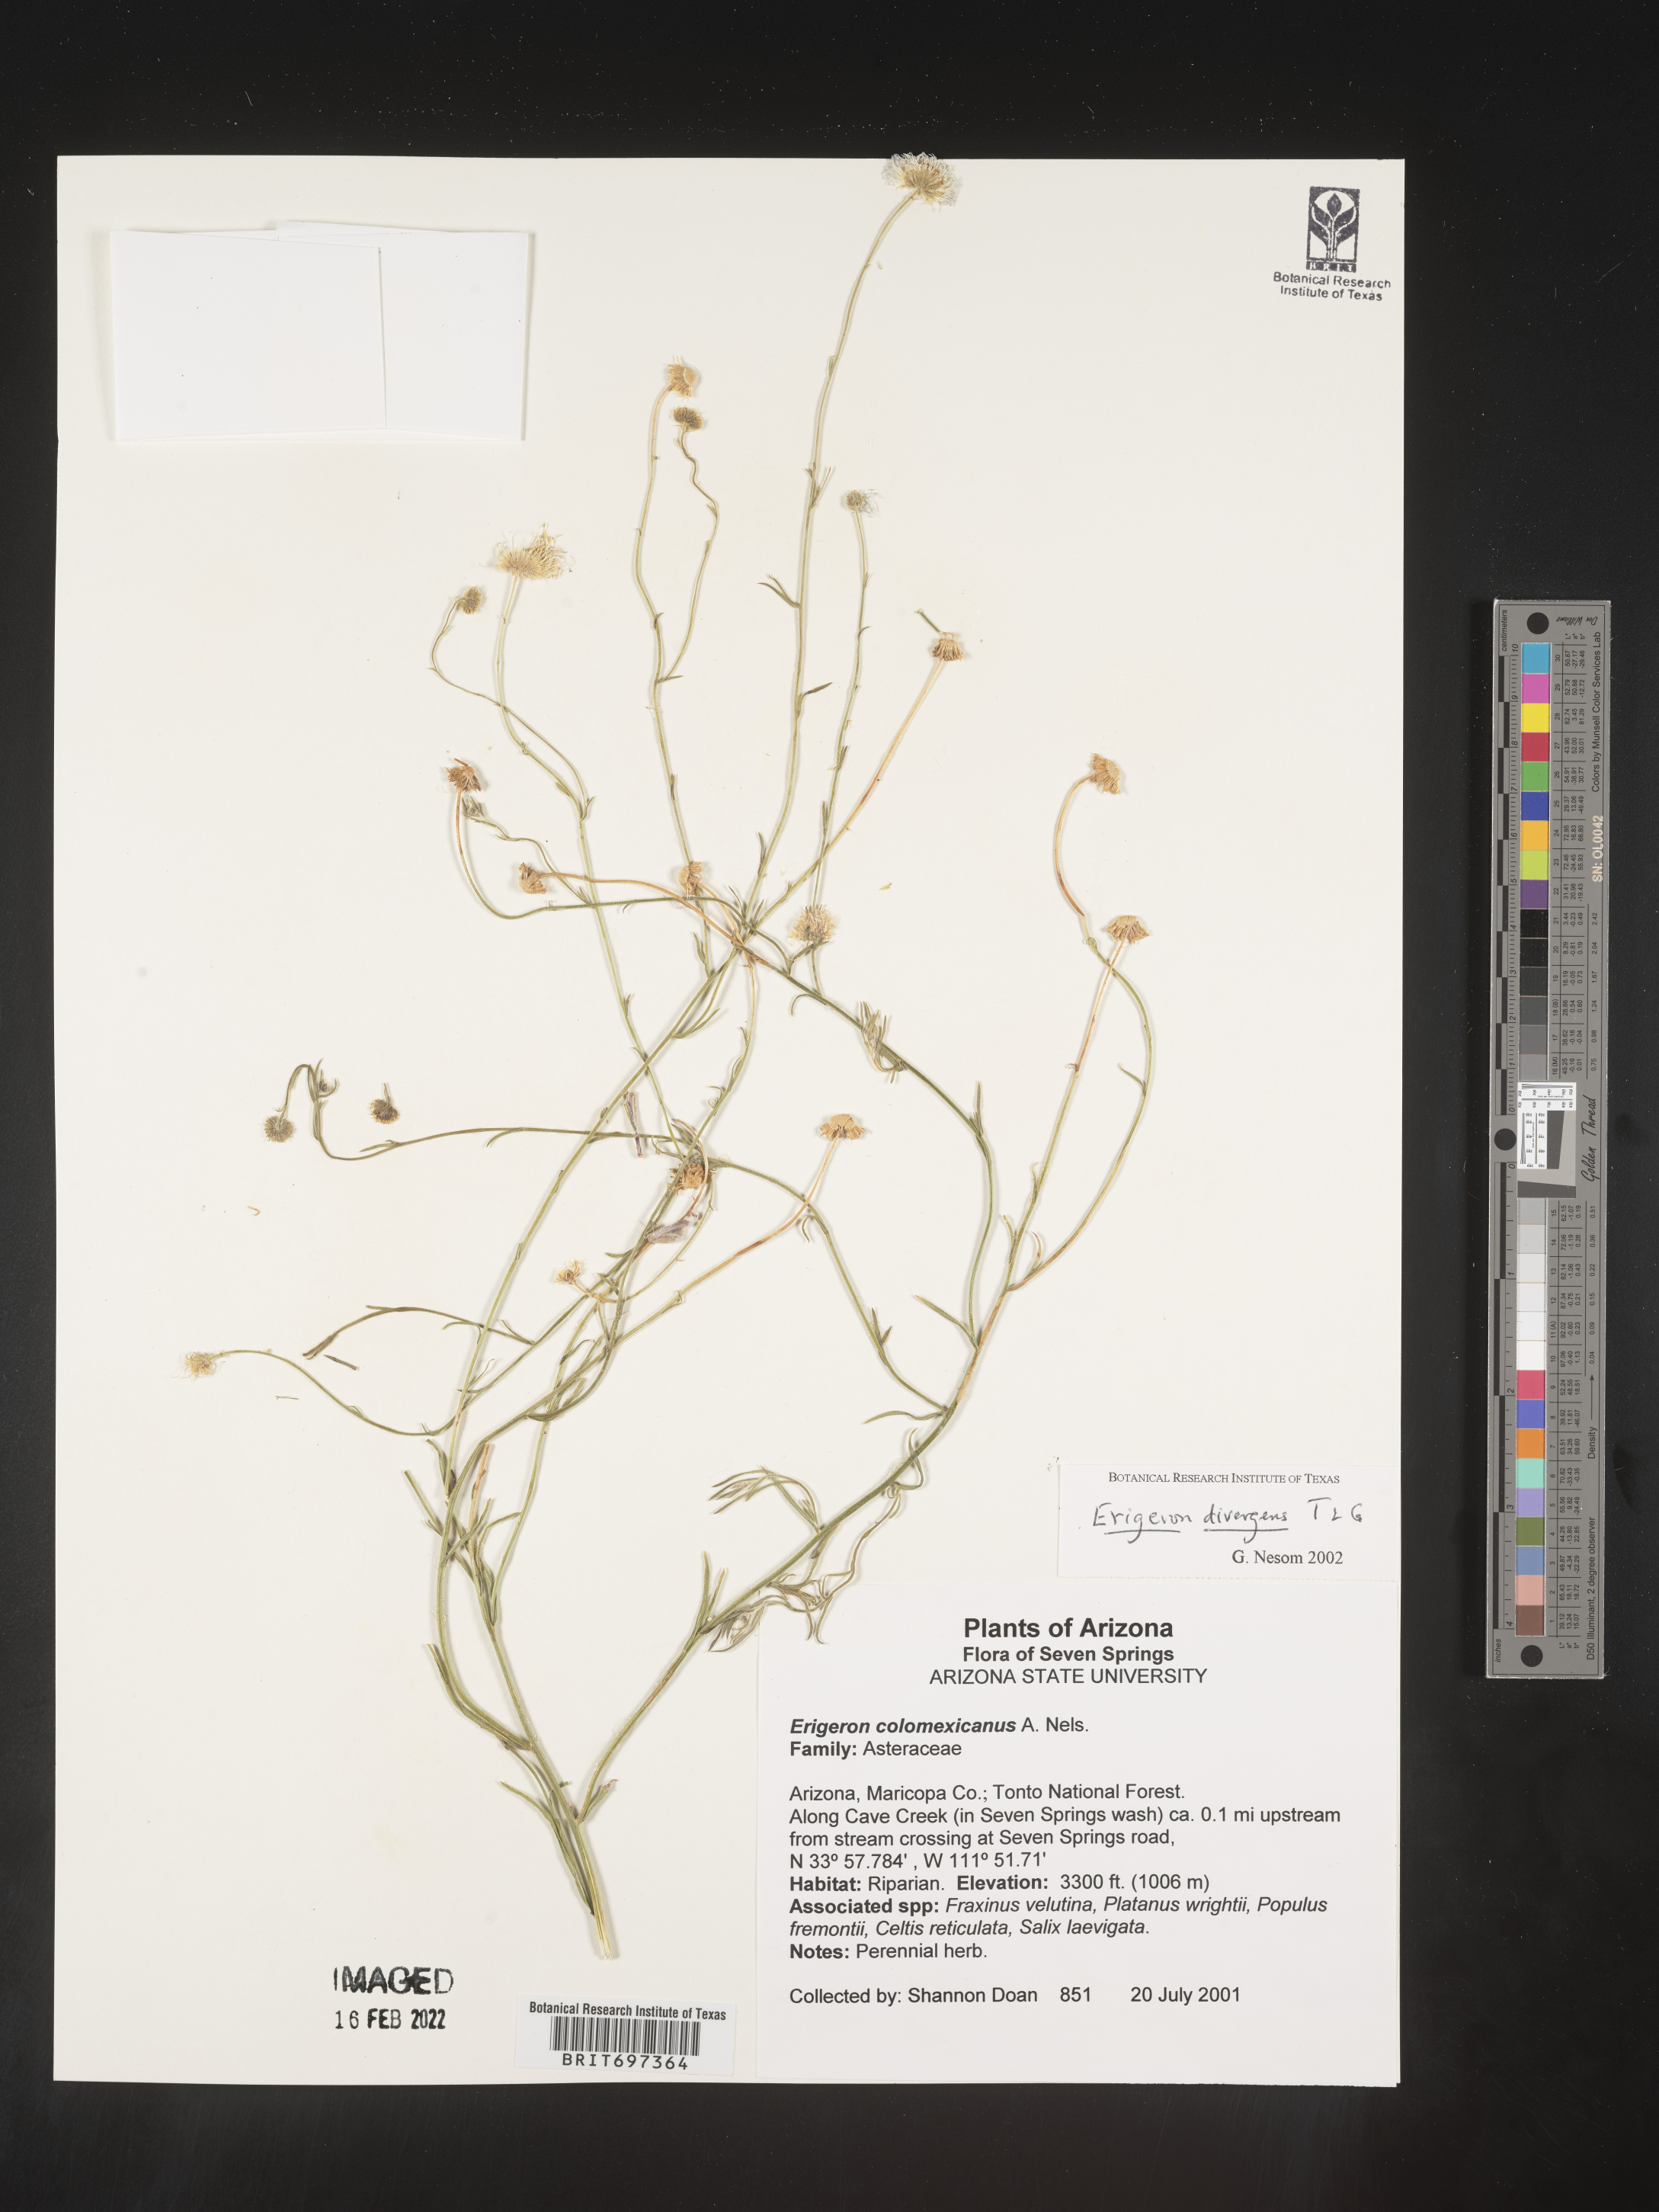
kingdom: Plantae
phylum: Tracheophyta
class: Magnoliopsida
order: Asterales
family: Asteraceae
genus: Erigeron
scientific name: Erigeron divergens
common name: Diffuse fleabane
